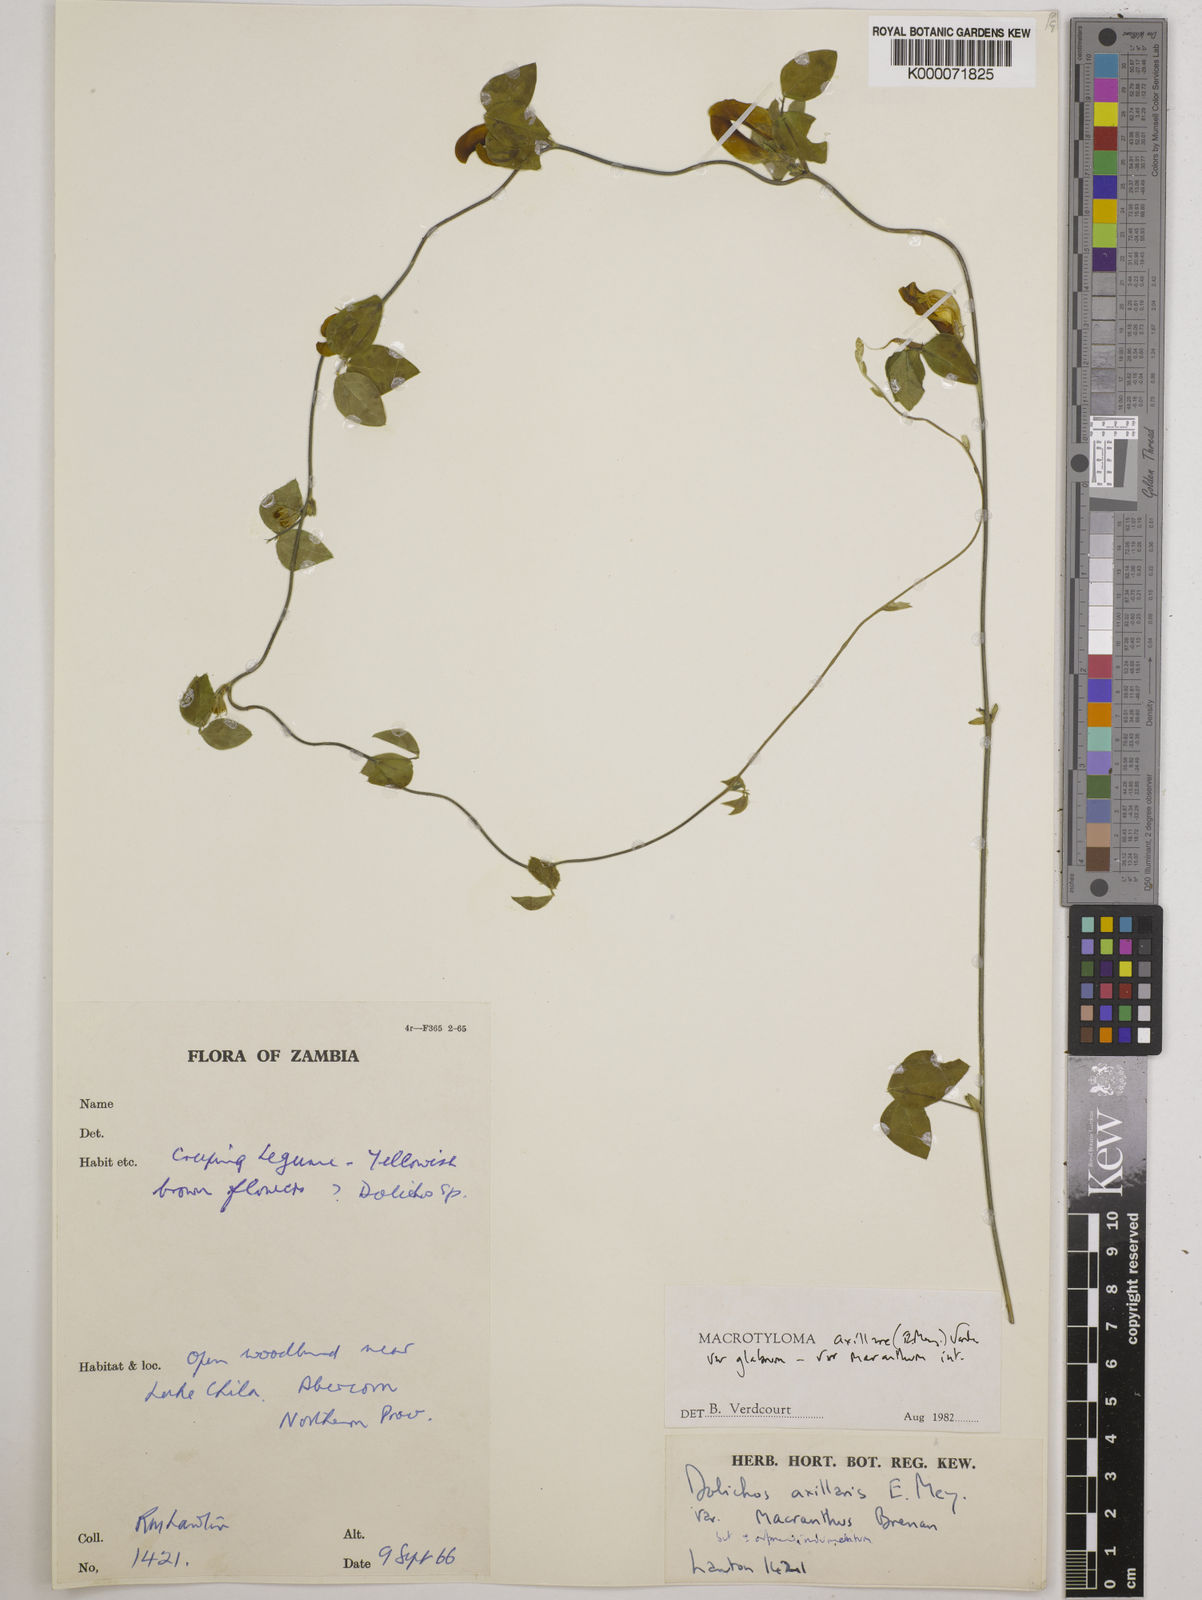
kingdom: Plantae
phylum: Tracheophyta
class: Magnoliopsida
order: Fabales
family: Fabaceae
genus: Macrotyloma
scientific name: Macrotyloma axillare
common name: Perennial horsegram
